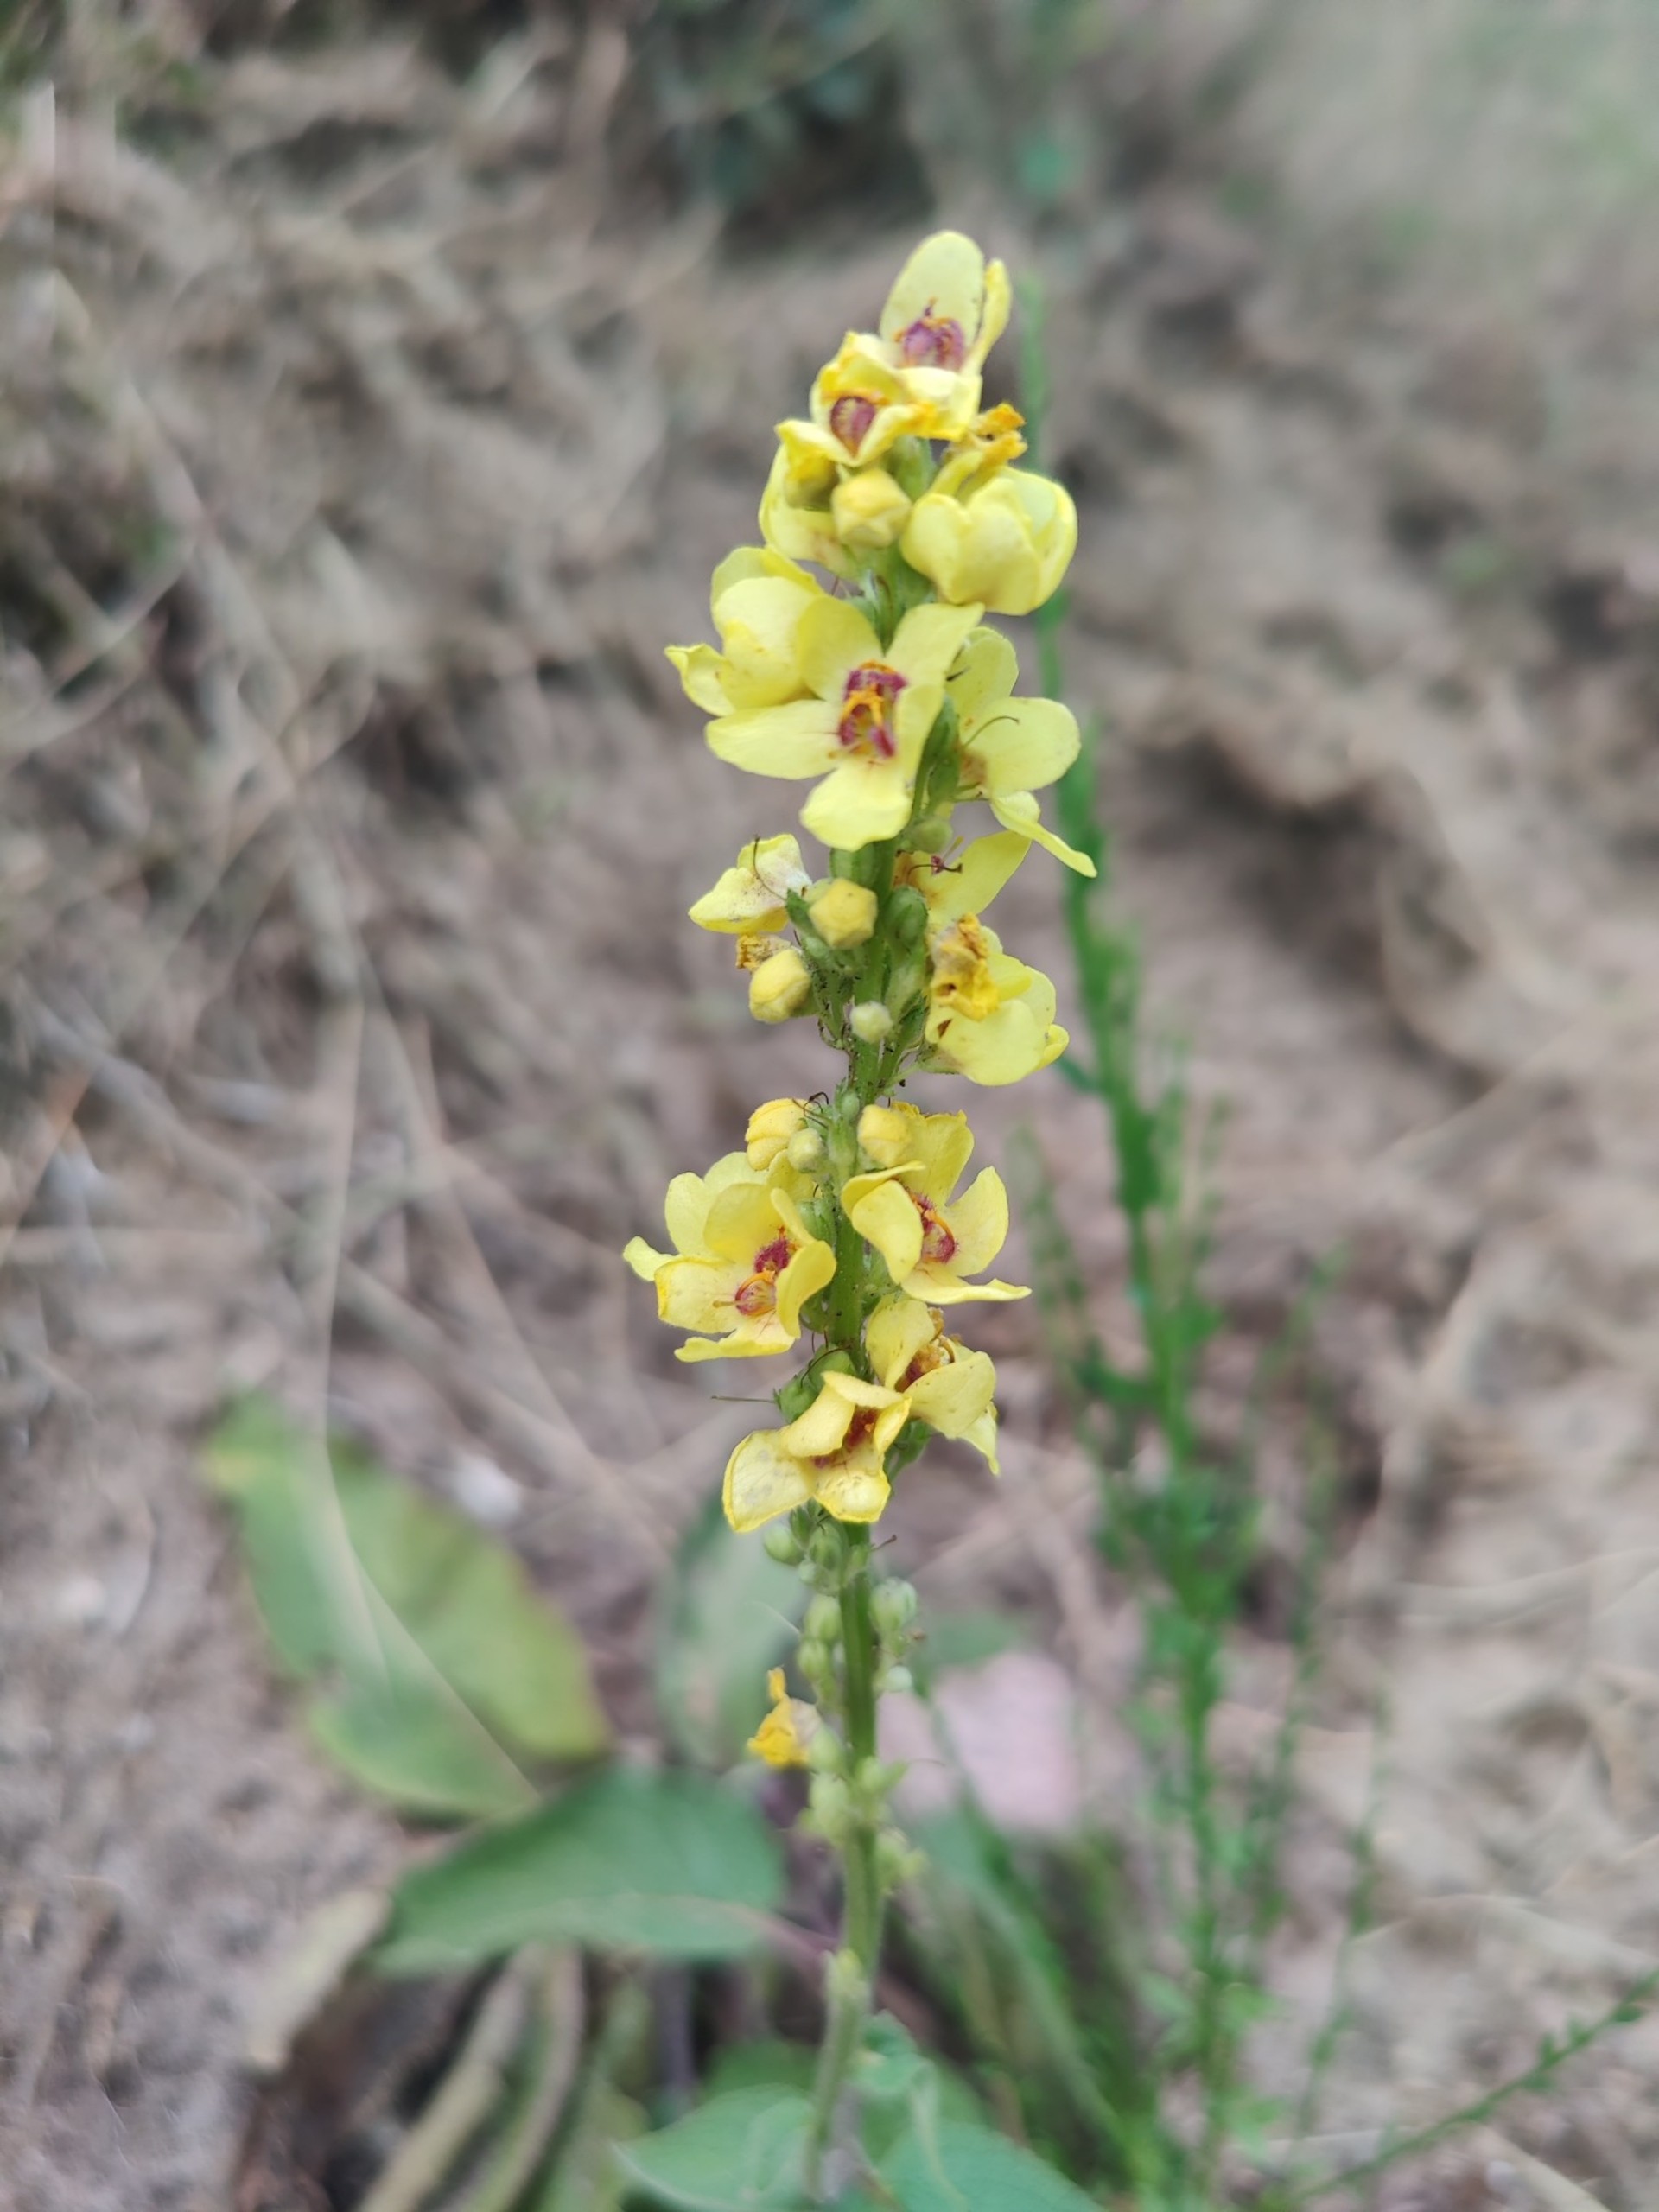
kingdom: Plantae
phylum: Tracheophyta
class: Magnoliopsida
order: Lamiales
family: Scrophulariaceae
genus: Verbascum
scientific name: Verbascum nigrum
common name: Mørk kongelys
